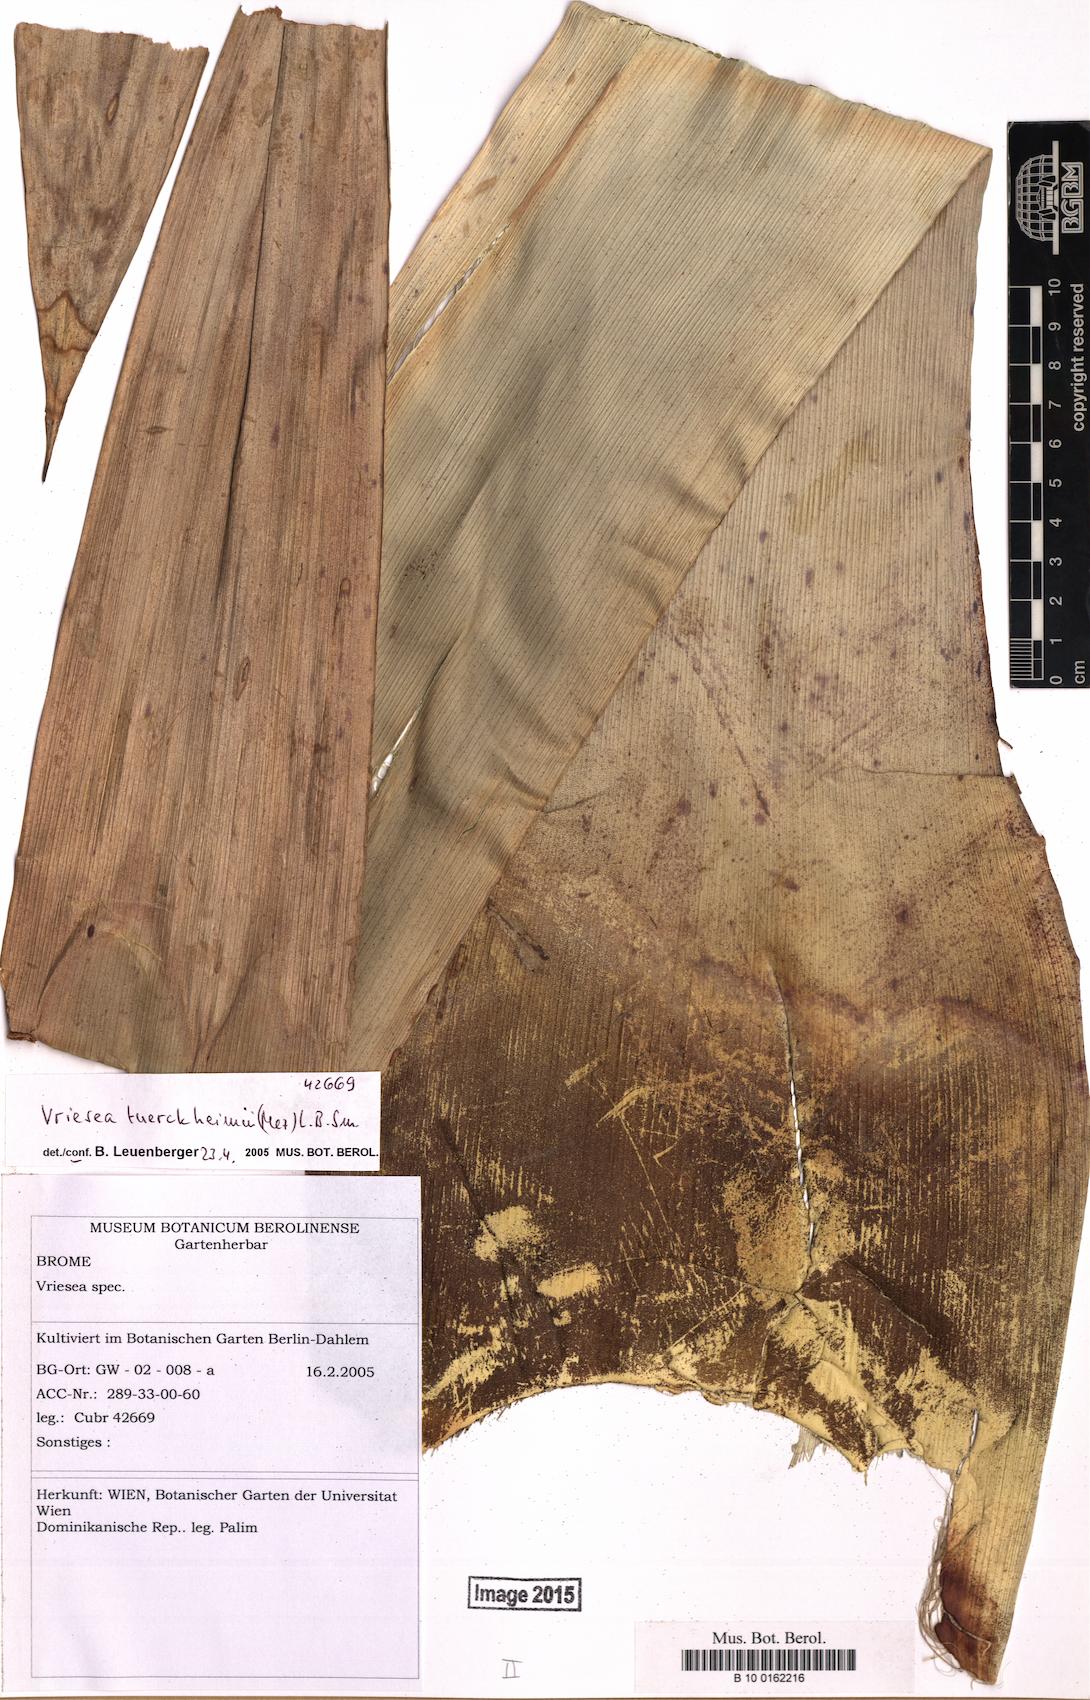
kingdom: Plantae
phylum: Tracheophyta
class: Liliopsida
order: Poales
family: Bromeliaceae
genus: Zizkaea
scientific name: Zizkaea tuerckheimii
